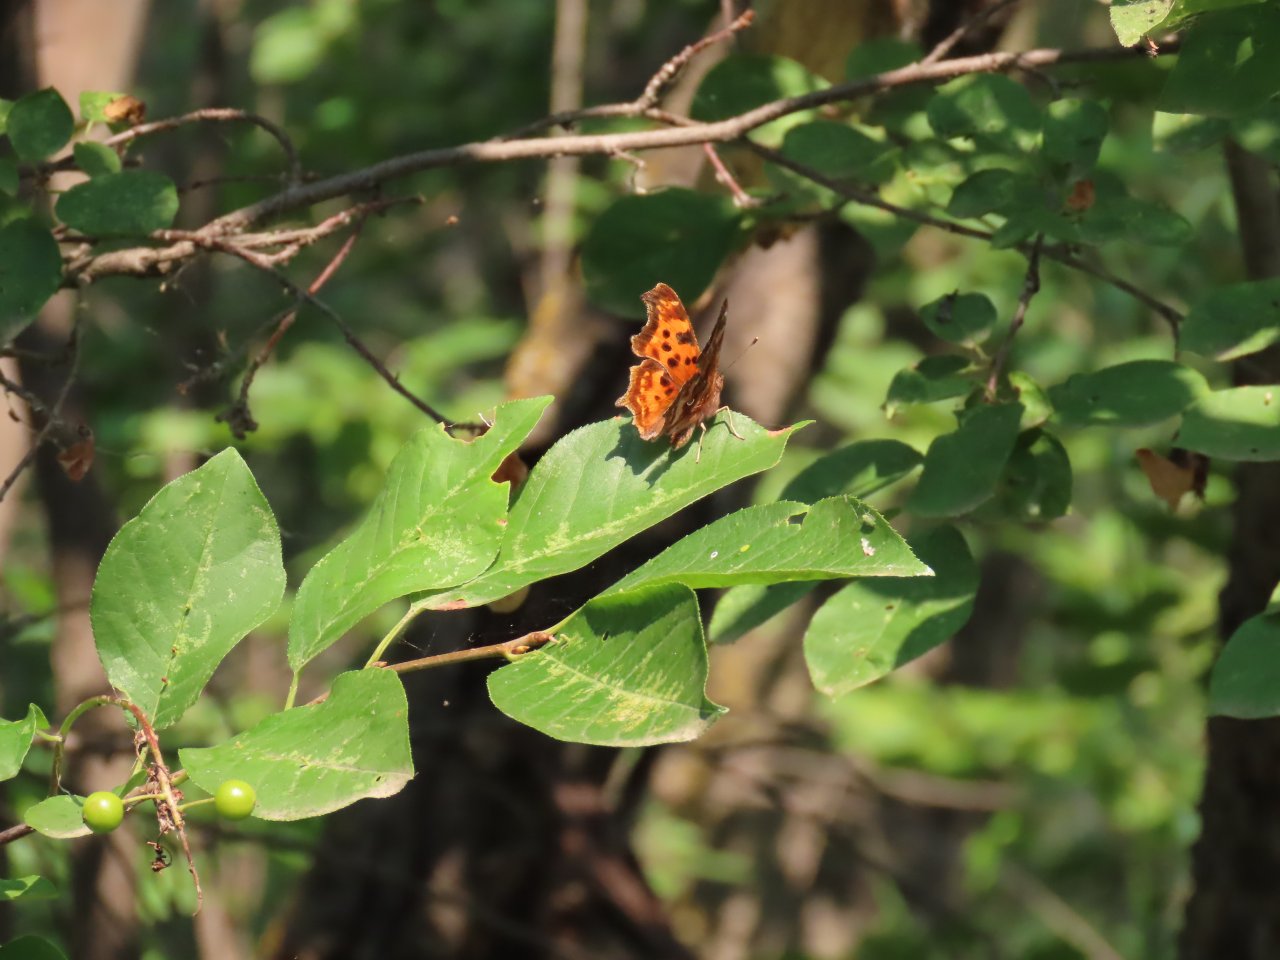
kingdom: Animalia
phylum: Arthropoda
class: Insecta
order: Lepidoptera
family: Nymphalidae
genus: Polygonia
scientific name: Polygonia satyrus
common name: Satyr Comma
